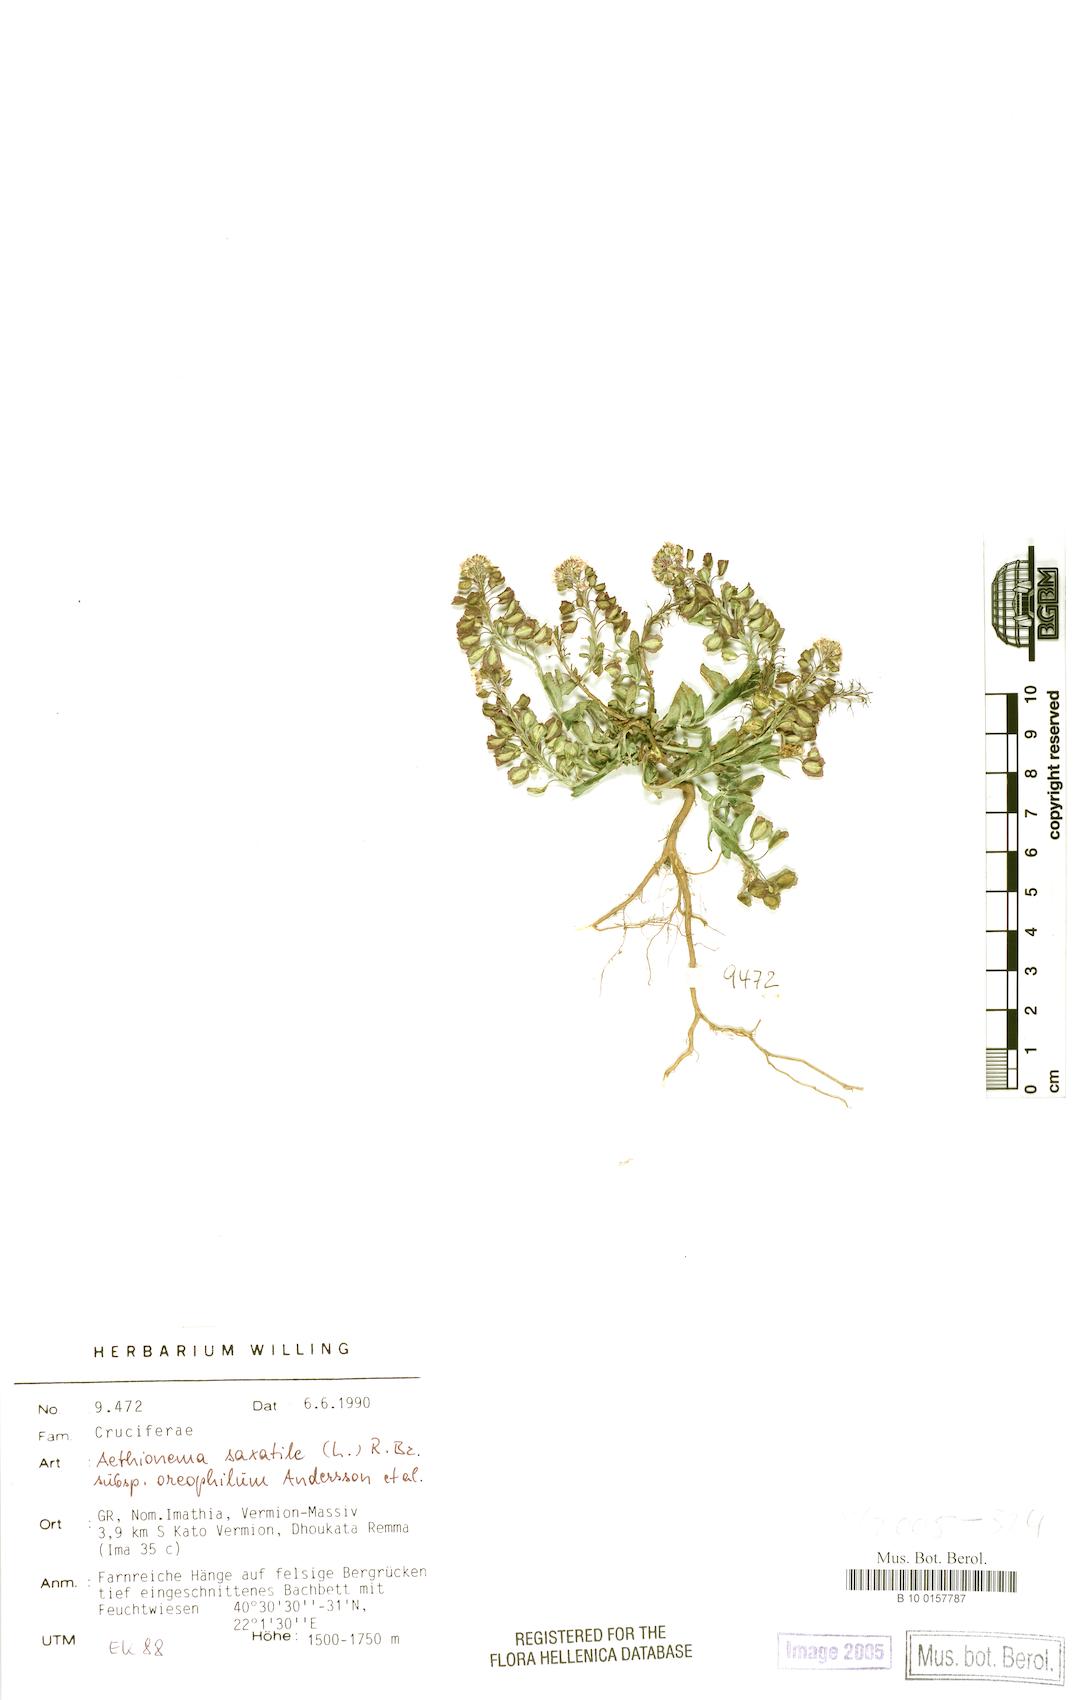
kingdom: Plantae
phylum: Tracheophyta
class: Magnoliopsida
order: Brassicales
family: Brassicaceae
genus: Aethionema
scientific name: Aethionema saxatile
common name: Burnt candytuft
